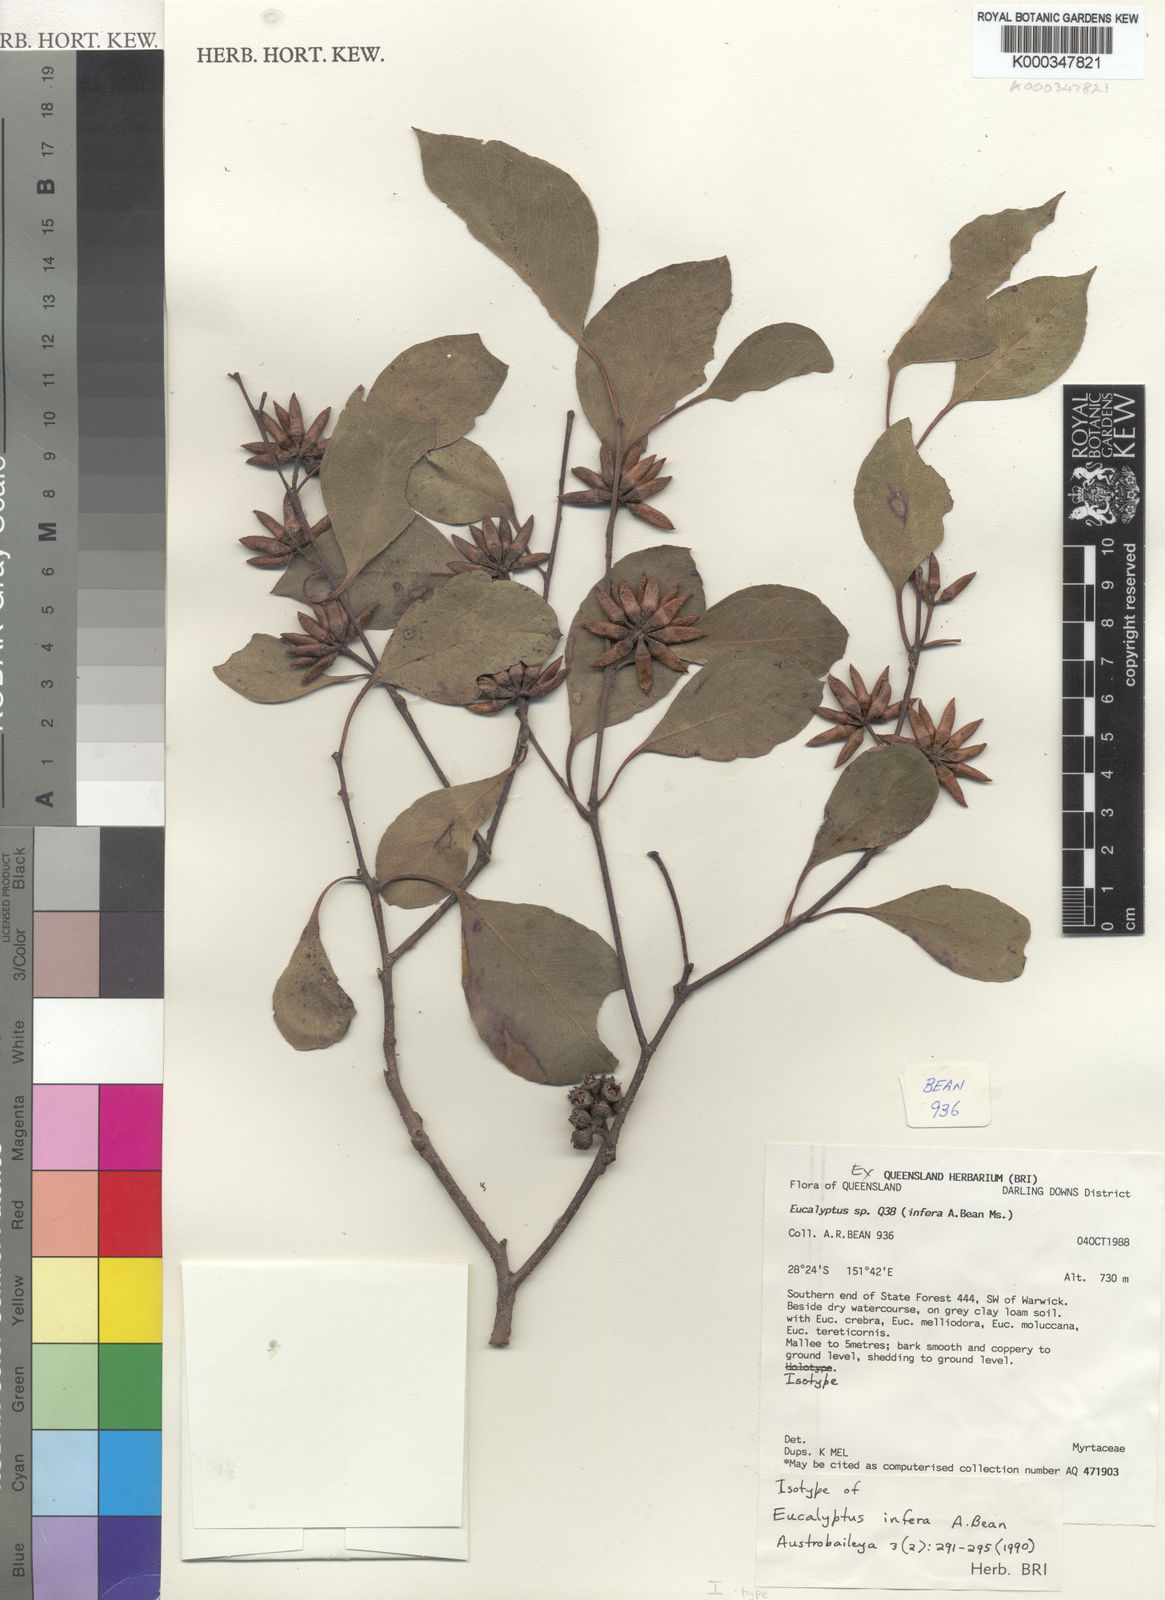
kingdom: Plantae
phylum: Tracheophyta
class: Magnoliopsida
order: Myrtales
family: Myrtaceae
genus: Eucalyptus
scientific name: Eucalyptus infera
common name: Durikai mallee
